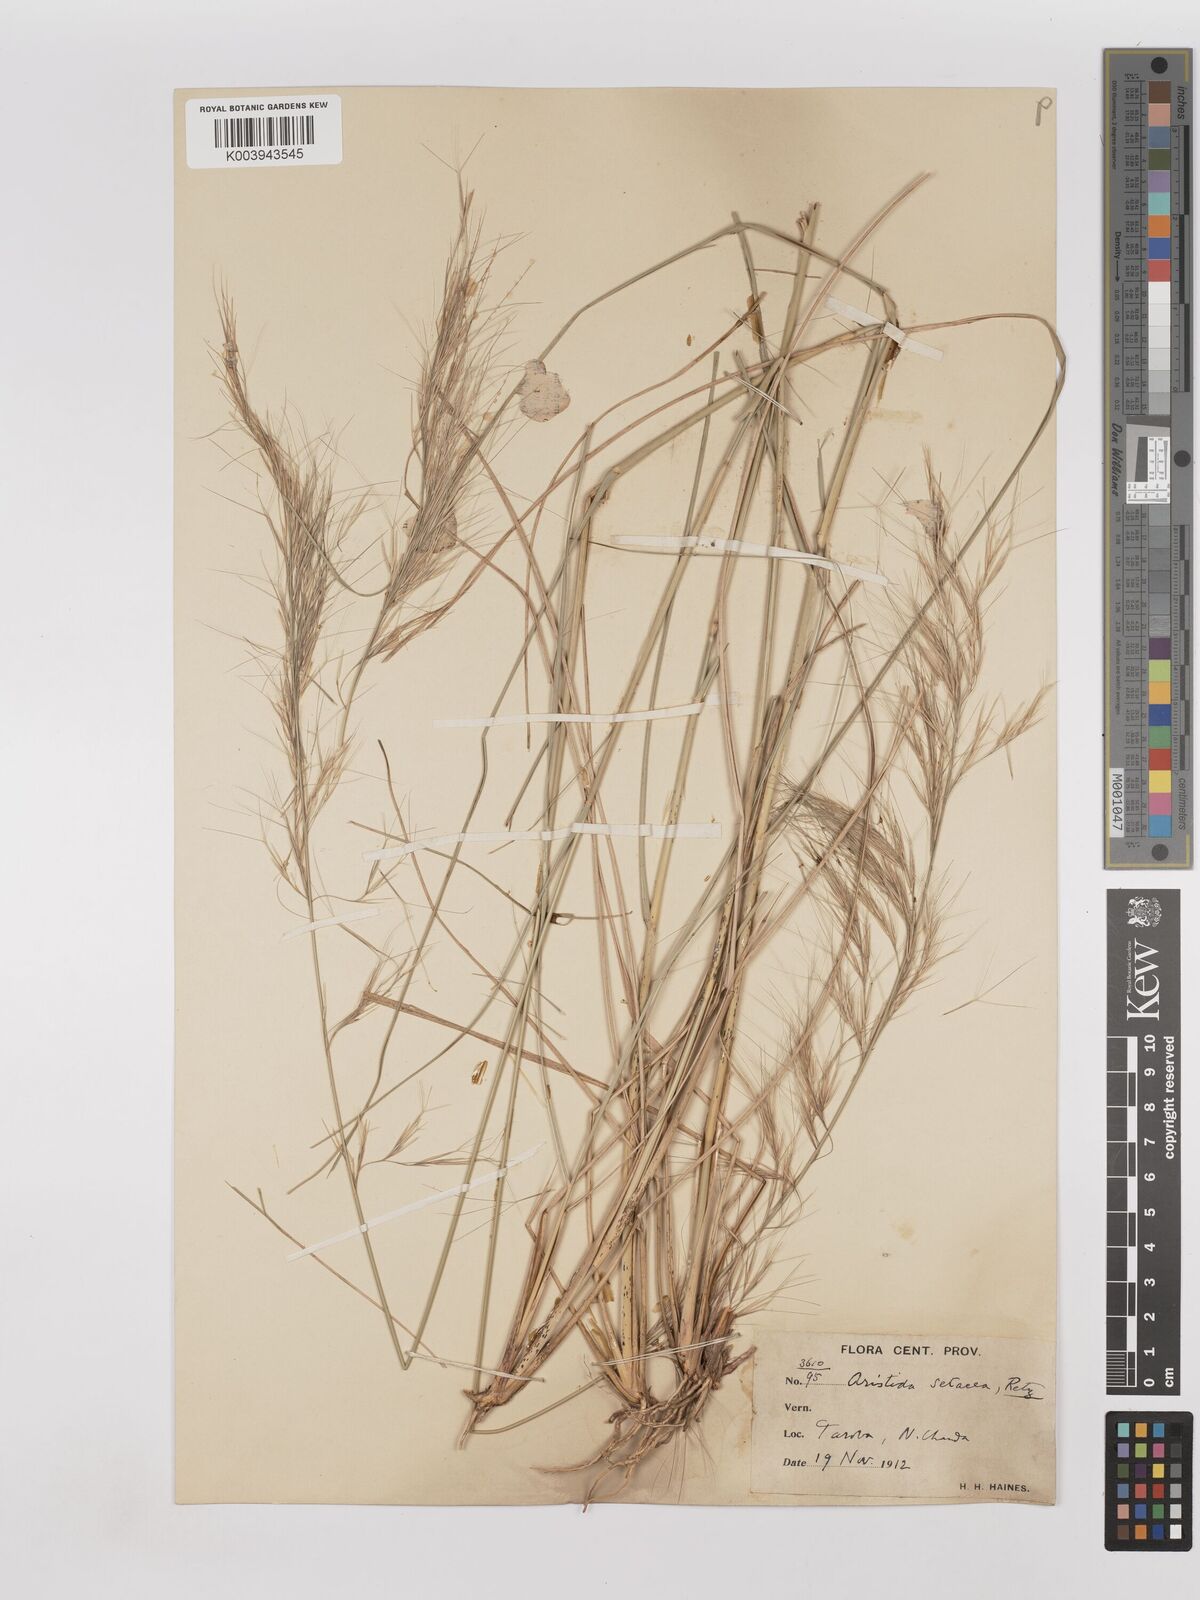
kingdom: Plantae
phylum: Tracheophyta
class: Liliopsida
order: Poales
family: Poaceae
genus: Aristida
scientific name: Aristida setacea
